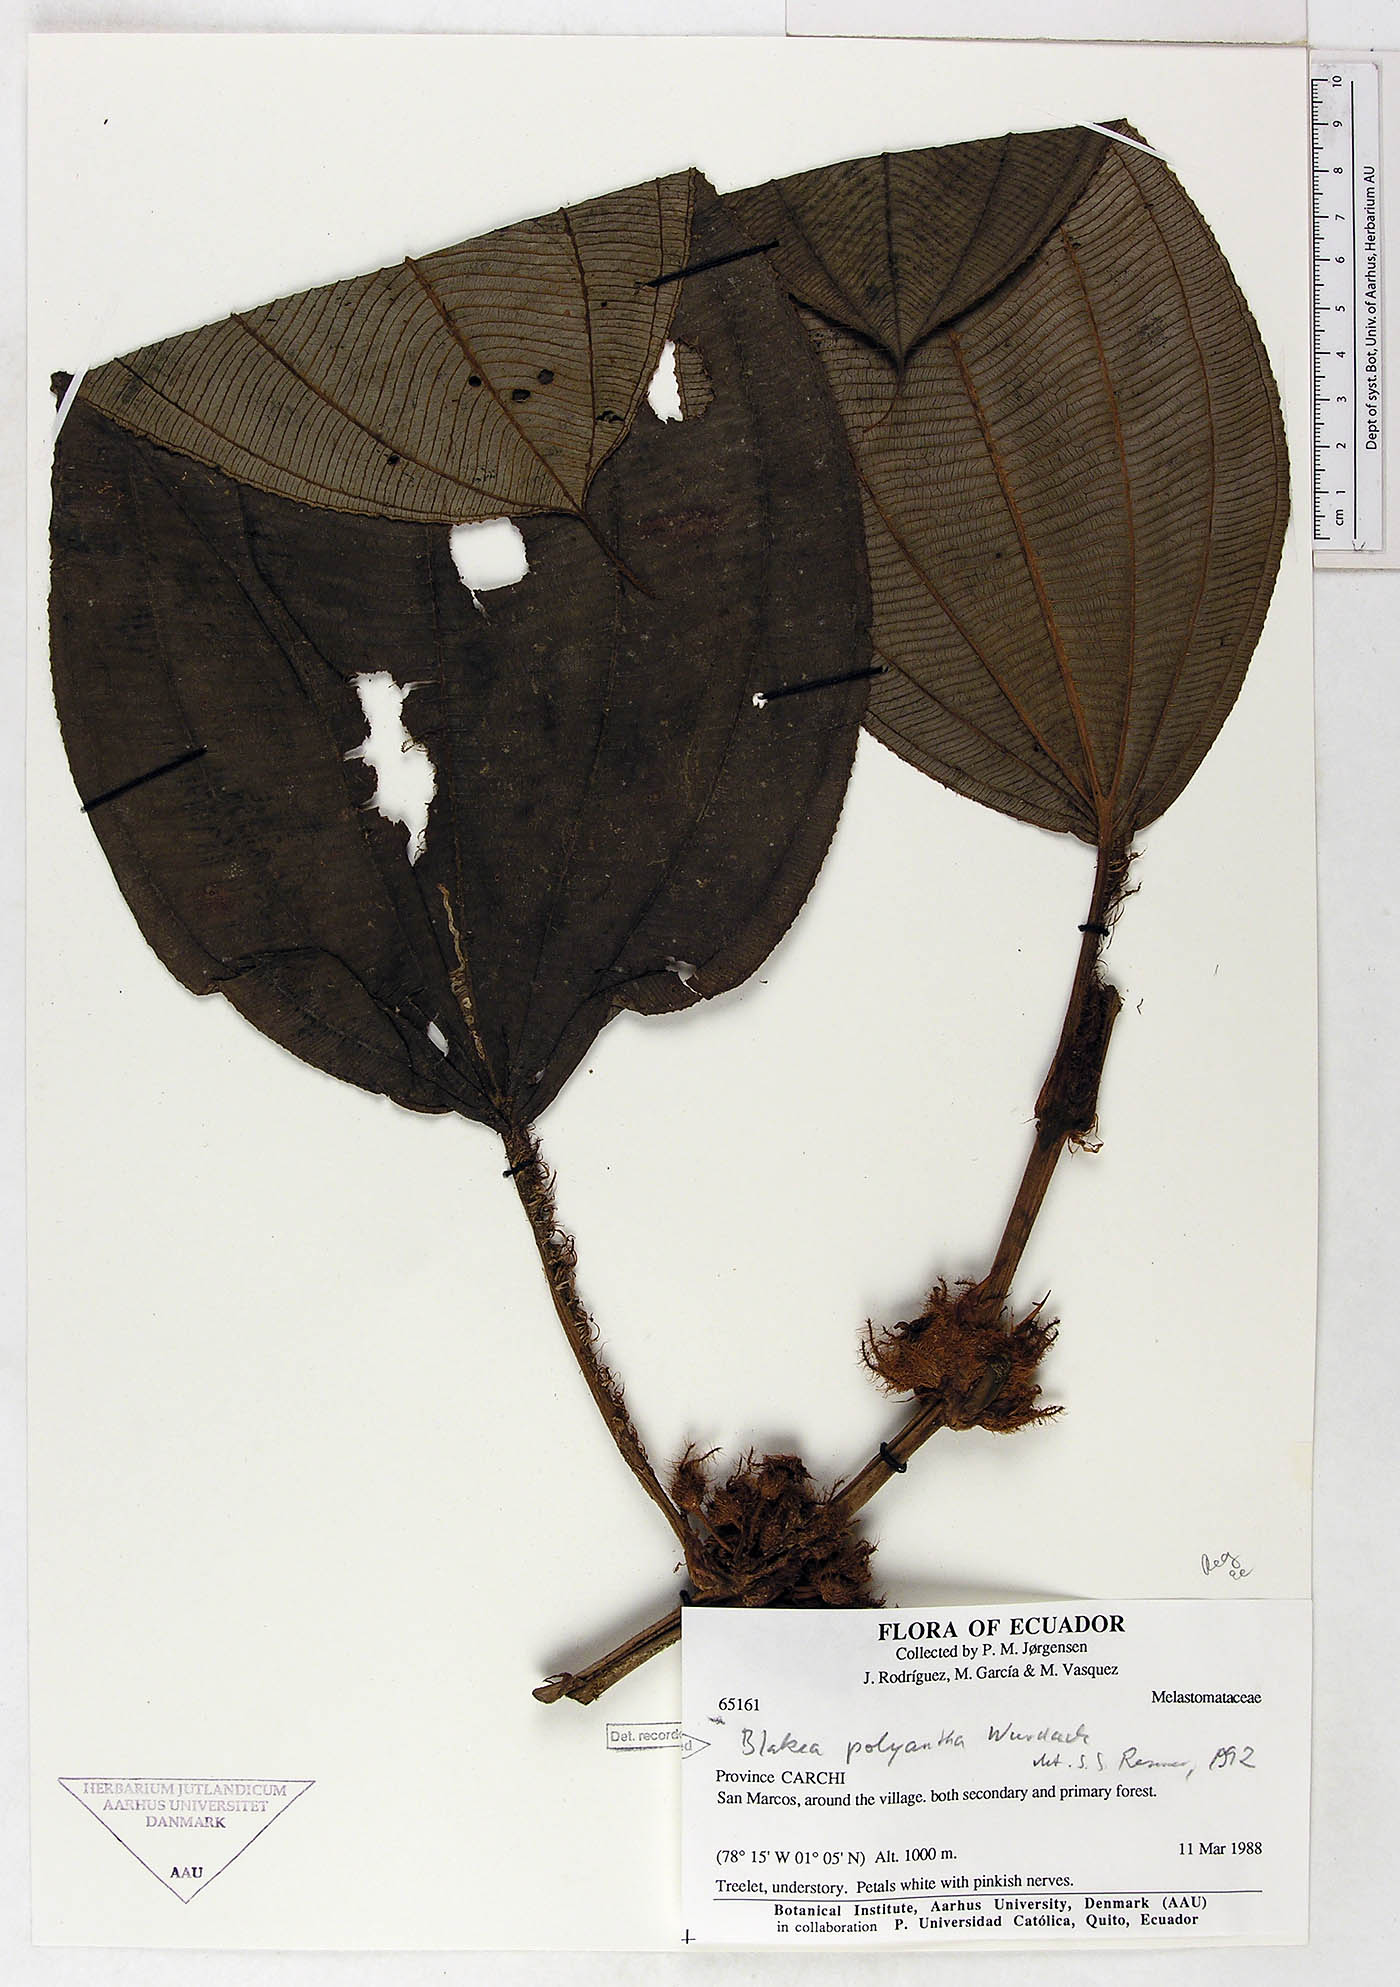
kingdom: Plantae
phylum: Tracheophyta
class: Magnoliopsida
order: Myrtales
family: Melastomataceae
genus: Blakea
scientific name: Blakea polyantha
